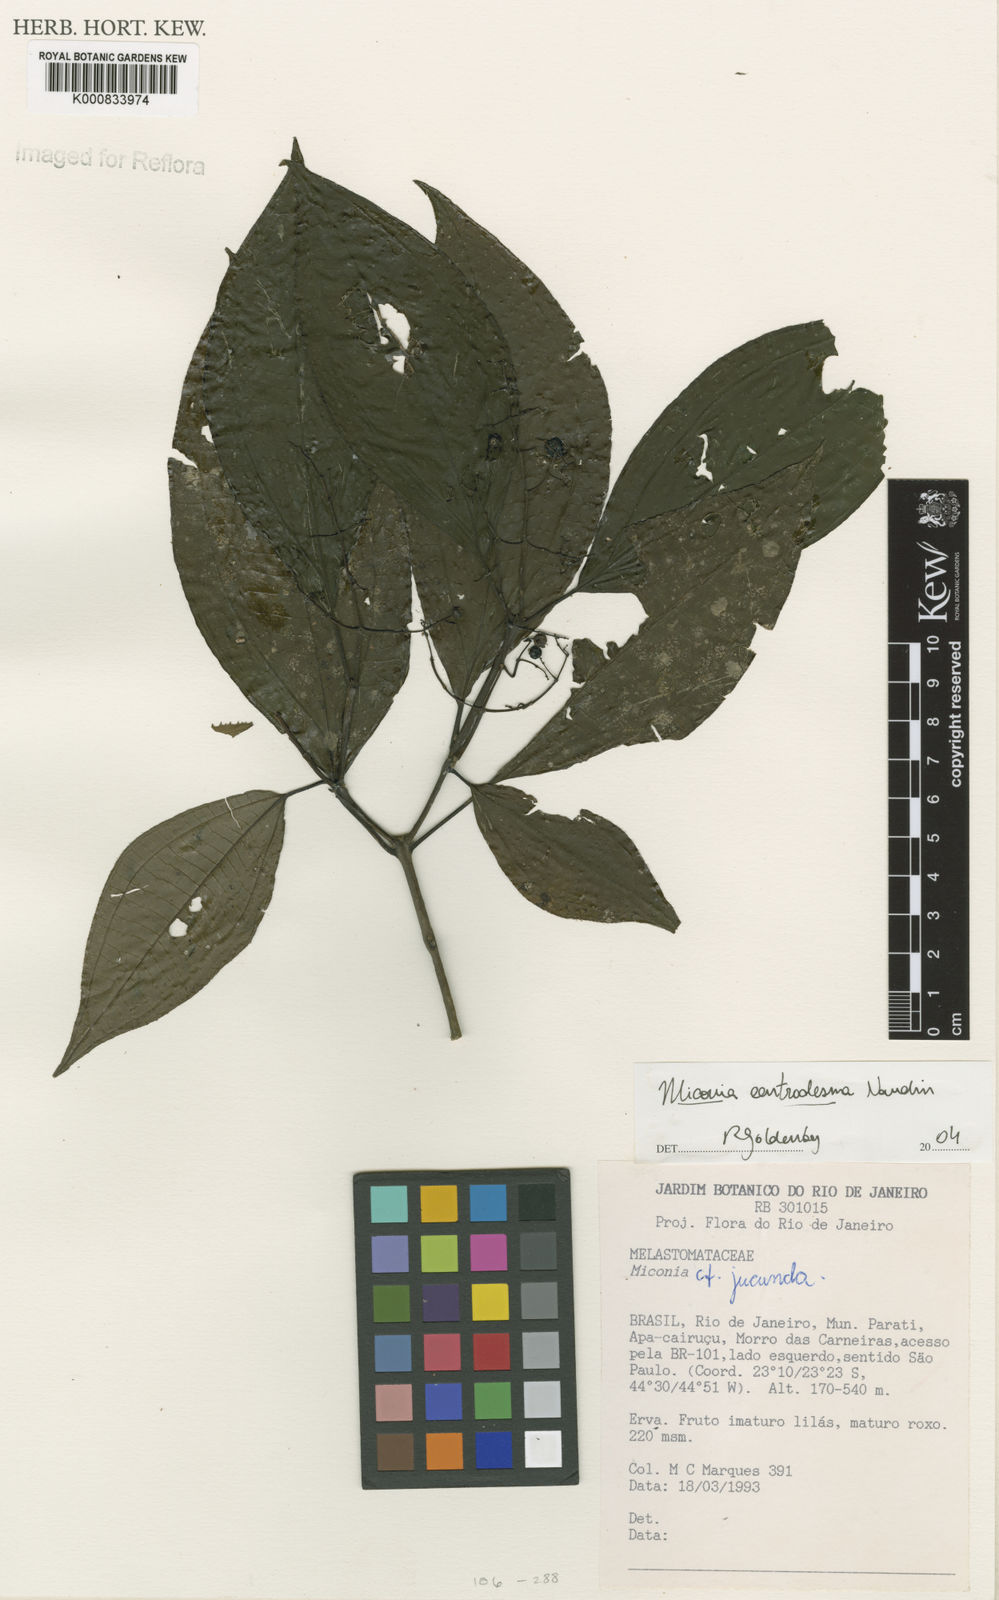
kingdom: Plantae
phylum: Tracheophyta
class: Magnoliopsida
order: Myrtales
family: Melastomataceae
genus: Miconia
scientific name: Miconia centrodesma
